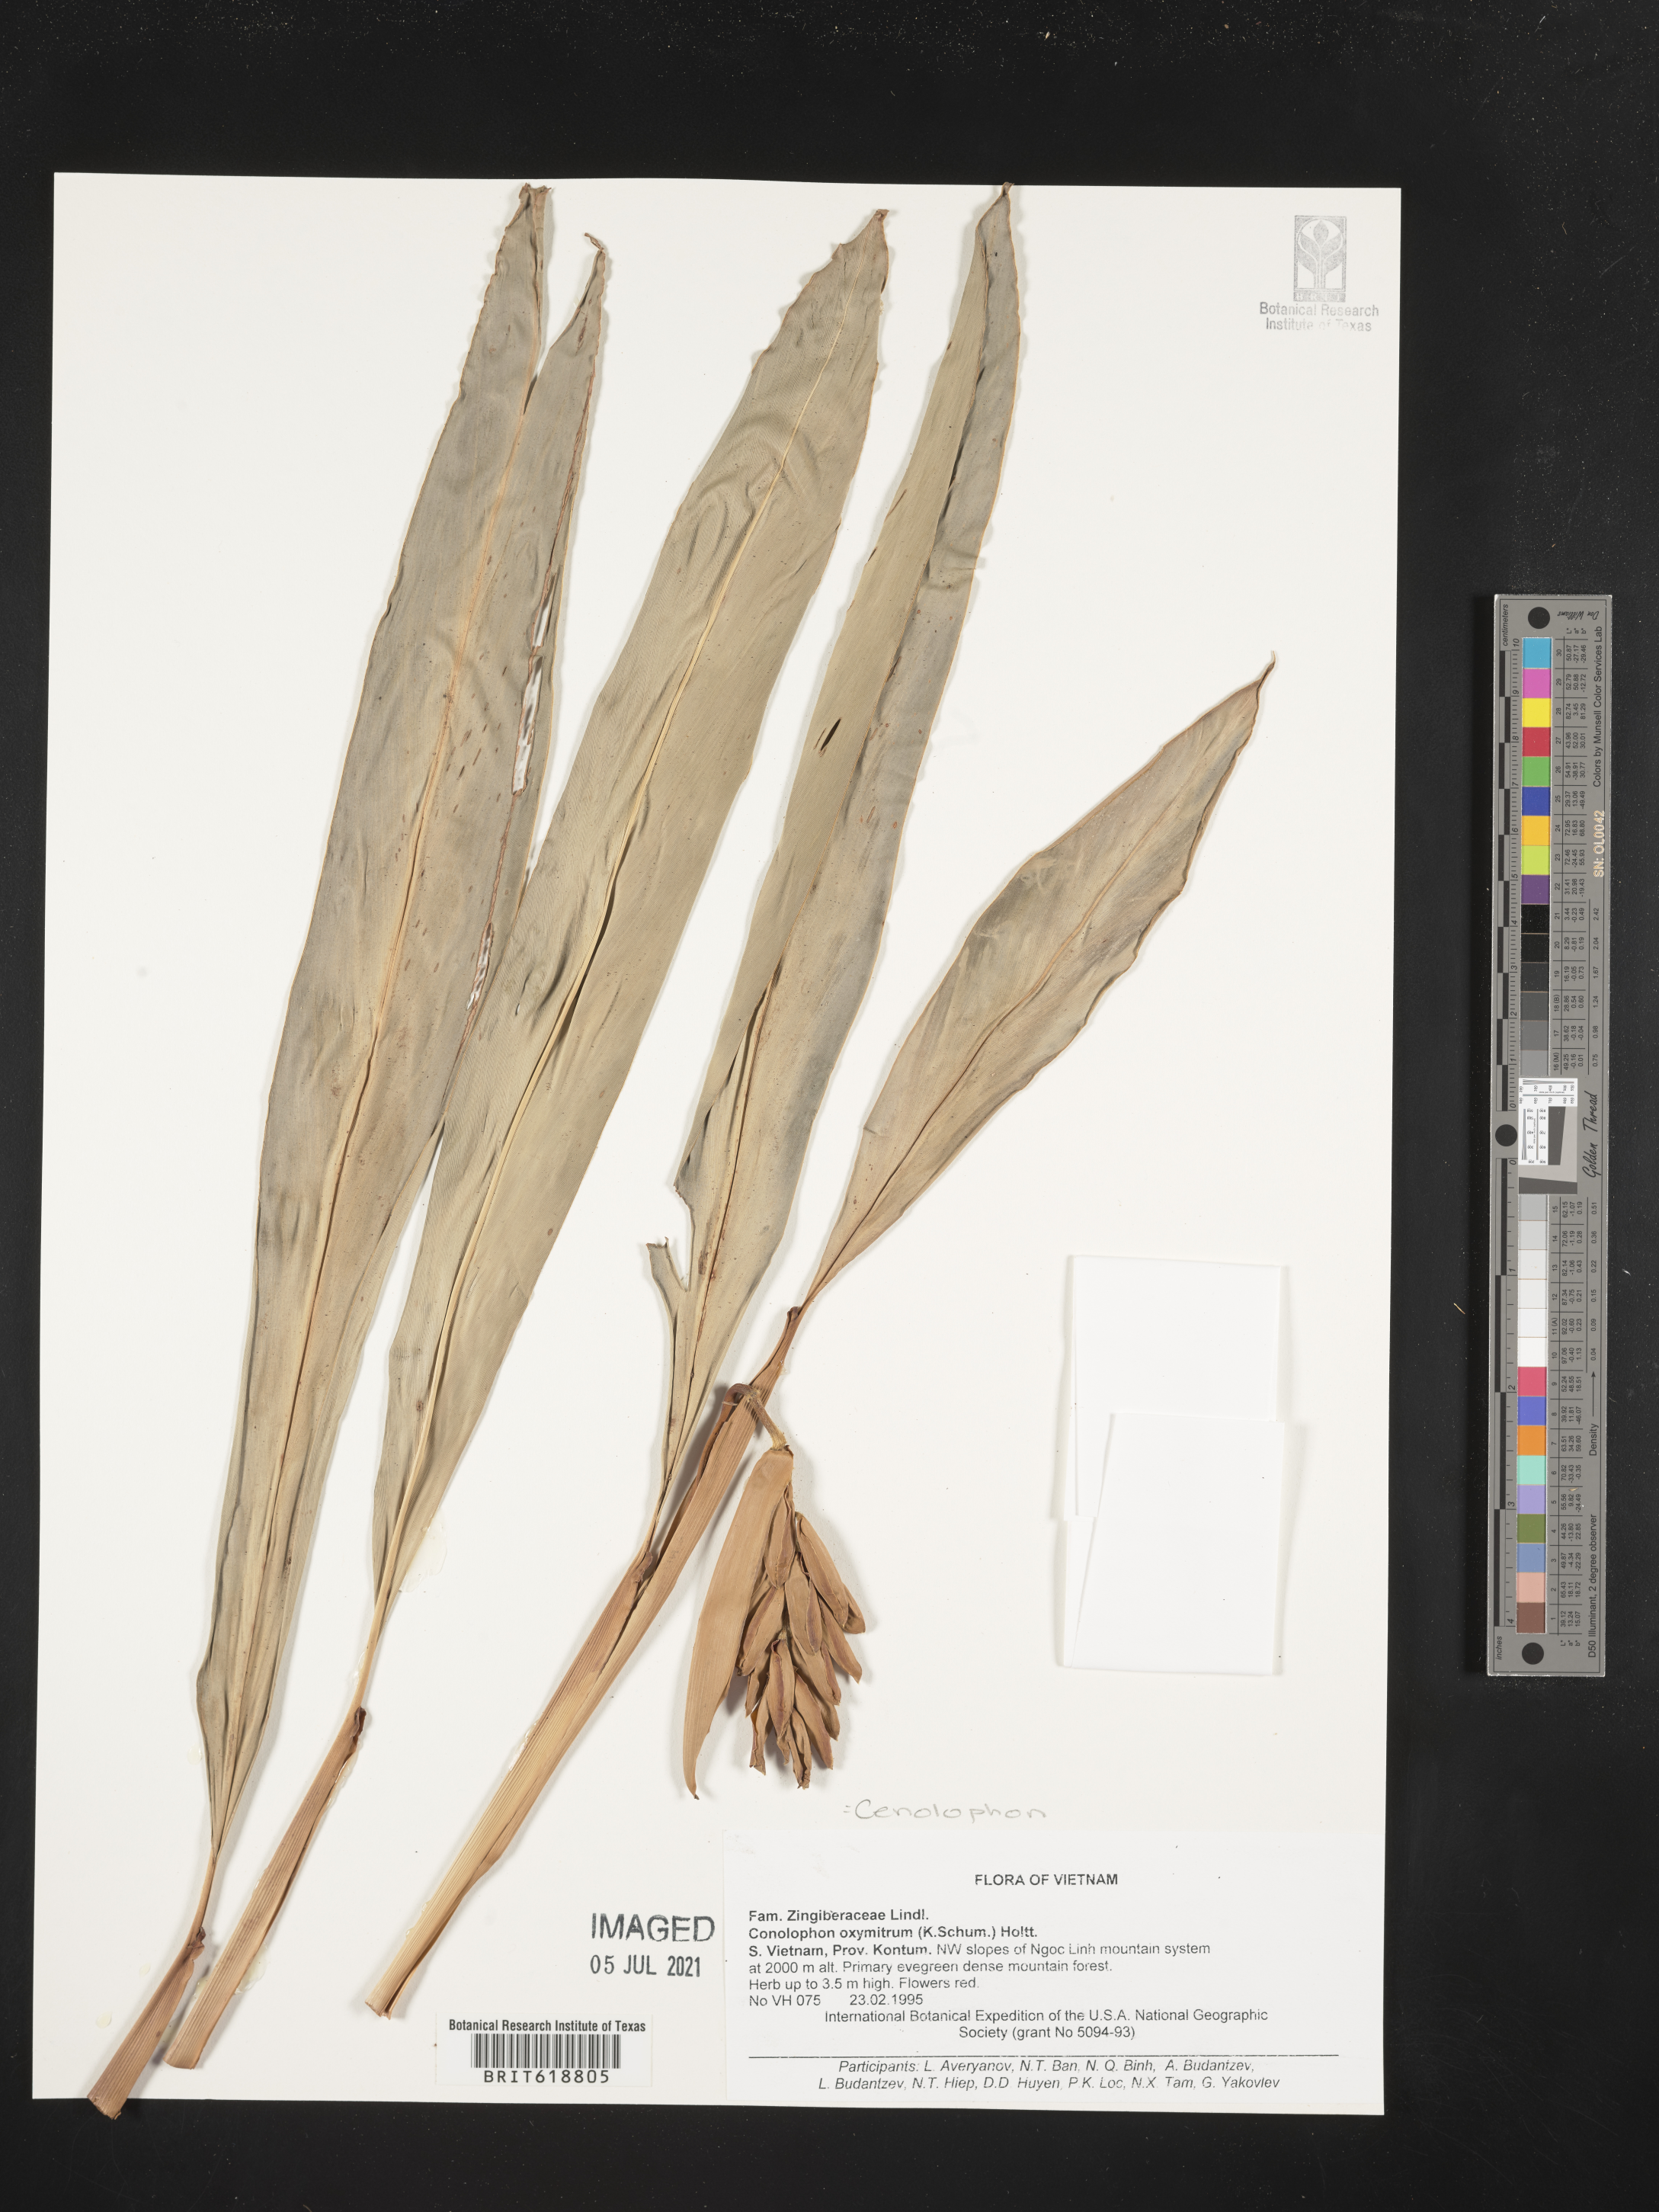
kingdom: Plantae
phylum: Tracheophyta
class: Liliopsida
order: Zingiberales
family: Zingiberaceae
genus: Alpinia
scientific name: Alpinia oxymitra
